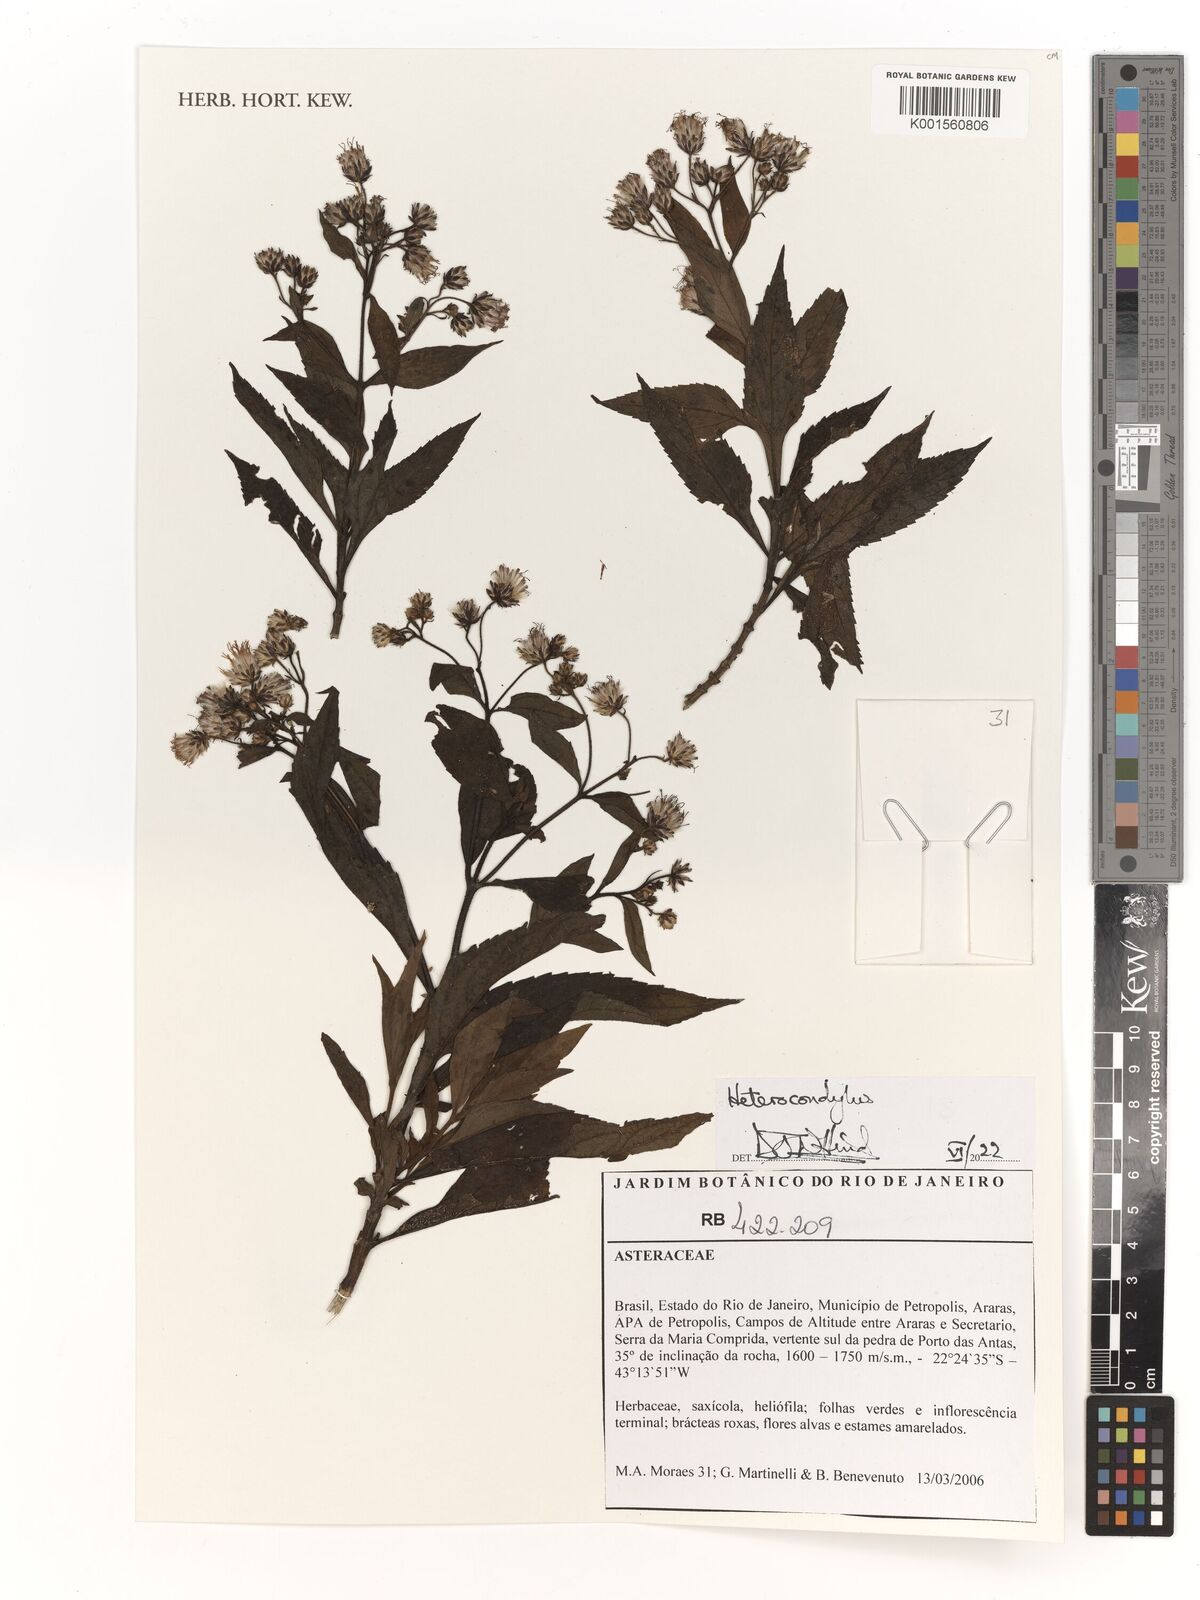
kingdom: Plantae
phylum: Tracheophyta
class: Magnoliopsida
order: Asterales
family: Asteraceae
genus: Heterocondylus
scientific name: Heterocondylus
